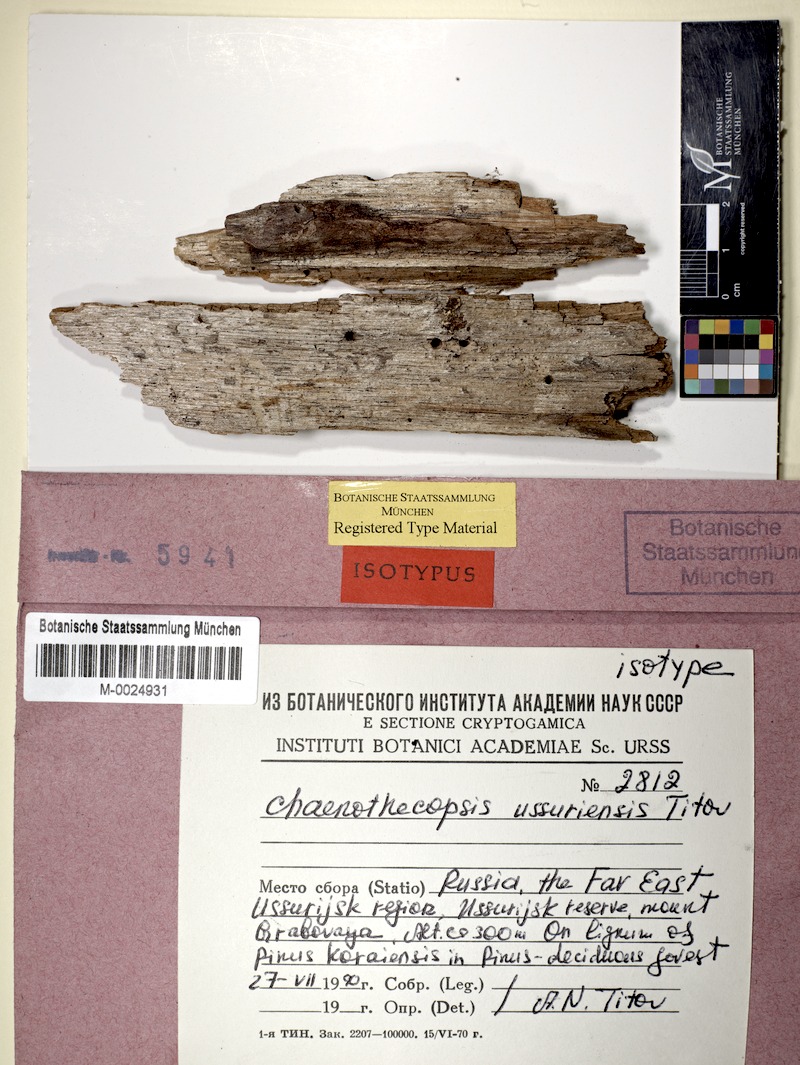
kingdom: Fungi
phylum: Ascomycota
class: Eurotiomycetes
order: Mycocaliciales
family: Mycocaliciaceae
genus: Chaenothecopsis
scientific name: Chaenothecopsis ussuriensis
